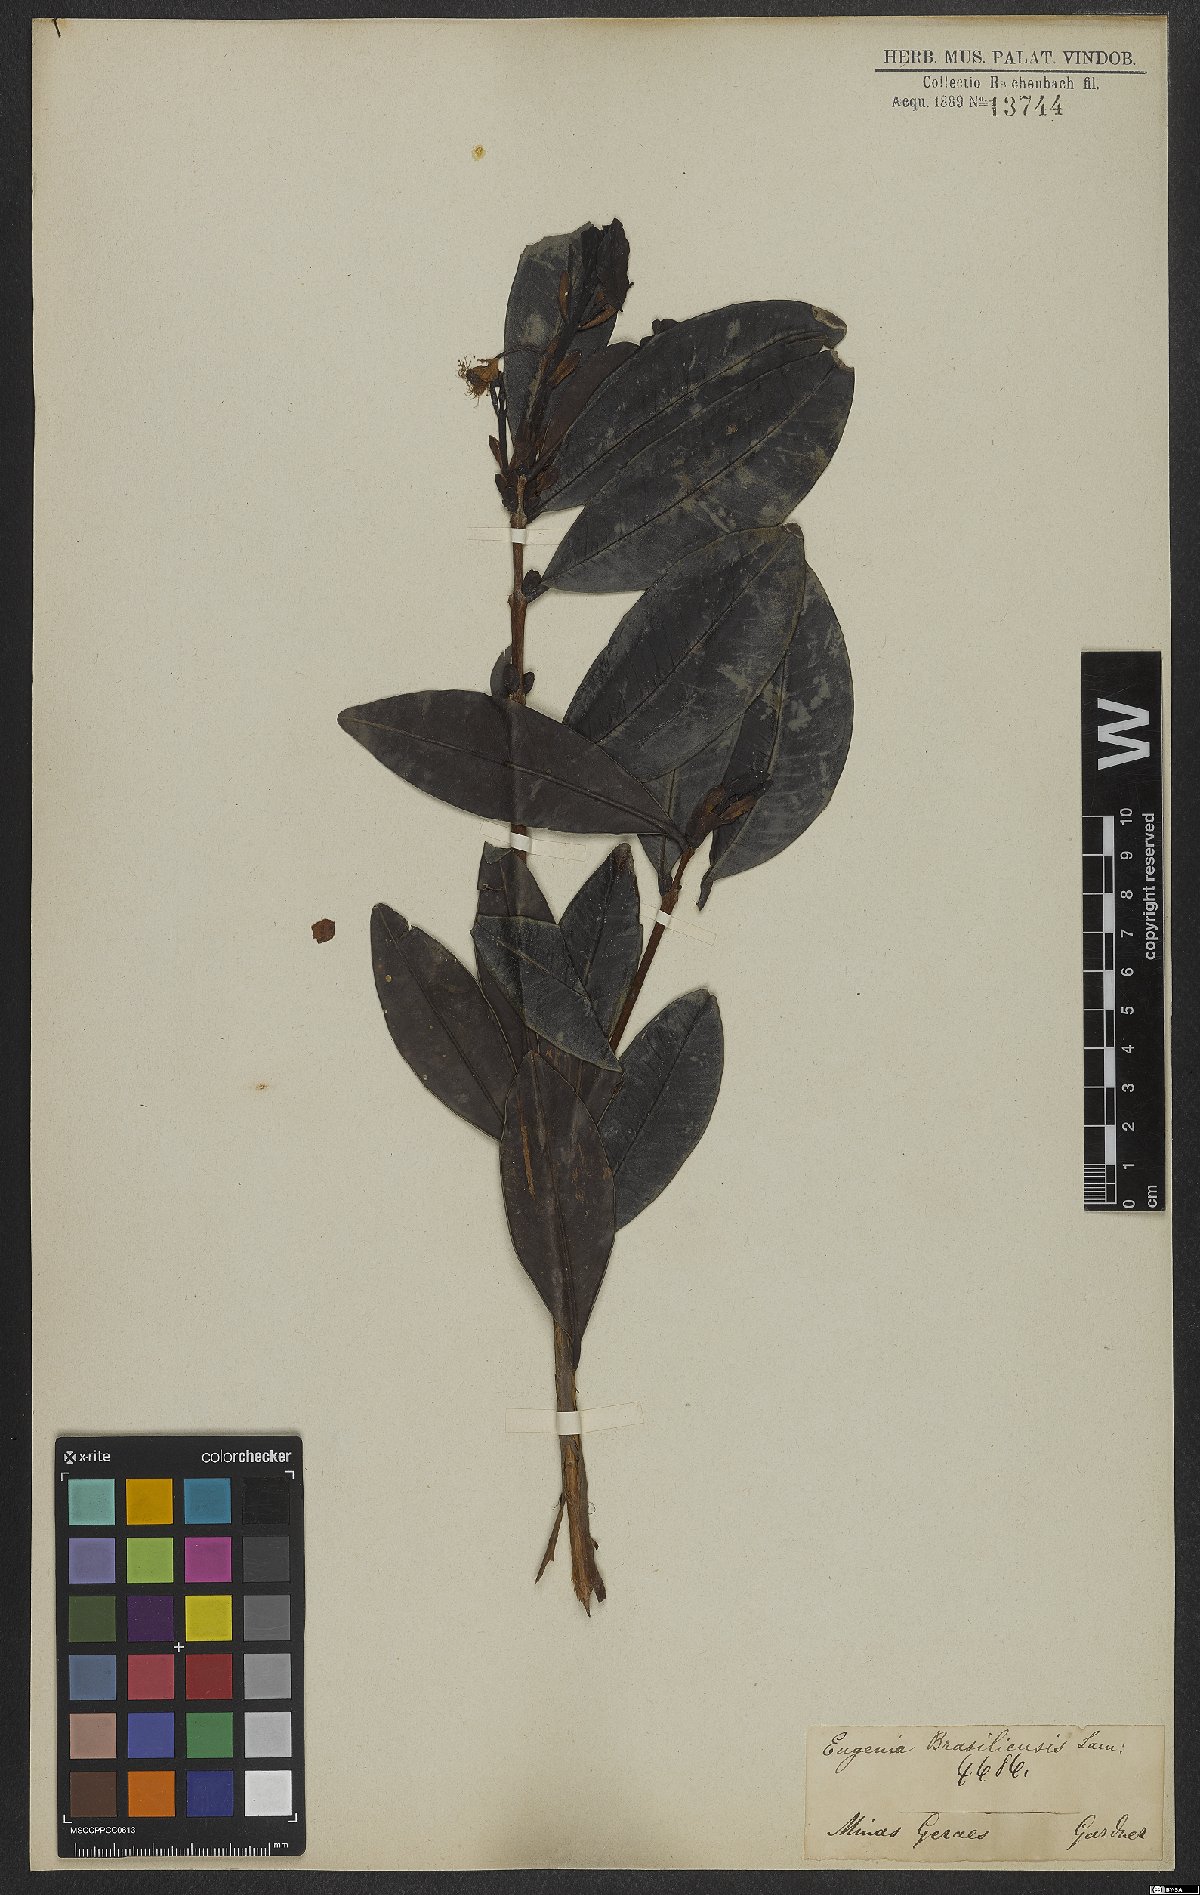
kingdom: Plantae
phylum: Tracheophyta
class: Magnoliopsida
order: Myrtales
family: Myrtaceae
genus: Eugenia
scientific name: Eugenia brasiliensis
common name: Grumichama
